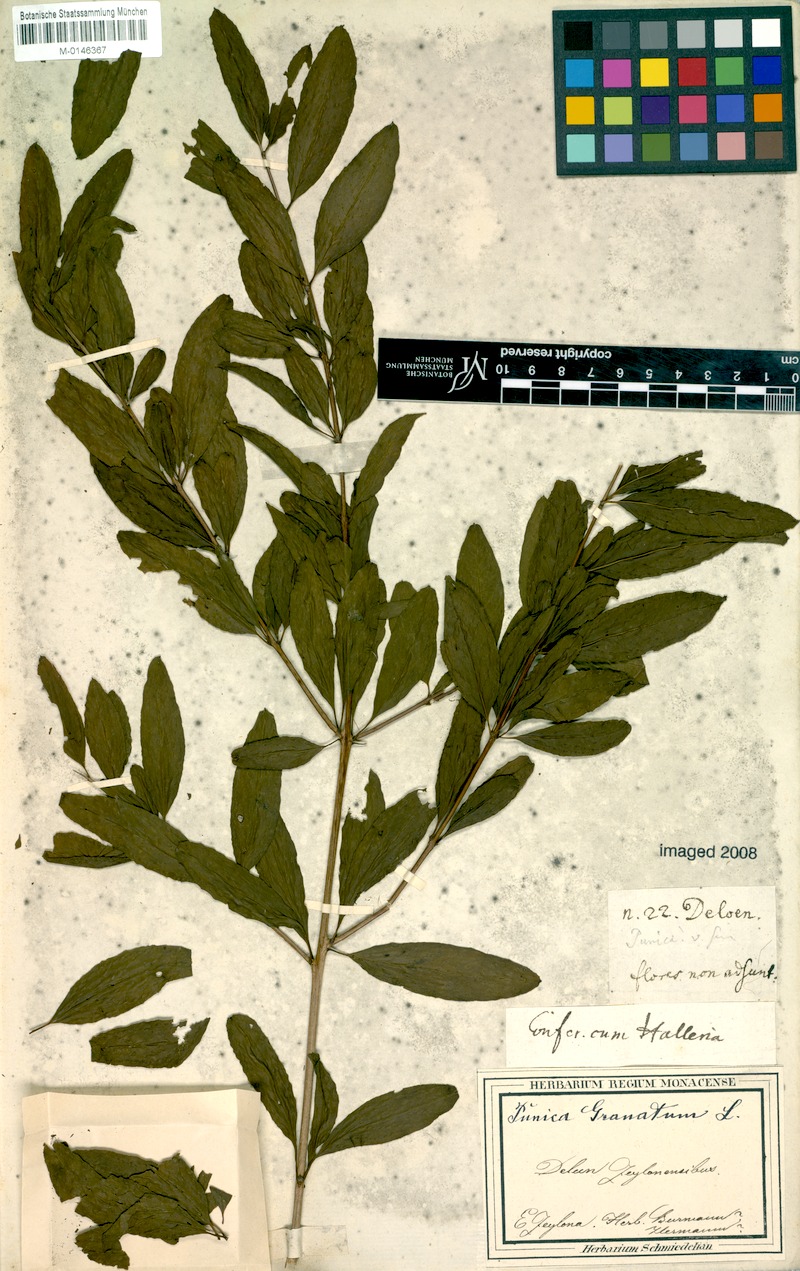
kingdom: Plantae
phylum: Tracheophyta
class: Magnoliopsida
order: Myrtales
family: Lythraceae
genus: Punica
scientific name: Punica granatum
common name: Pomegranate
